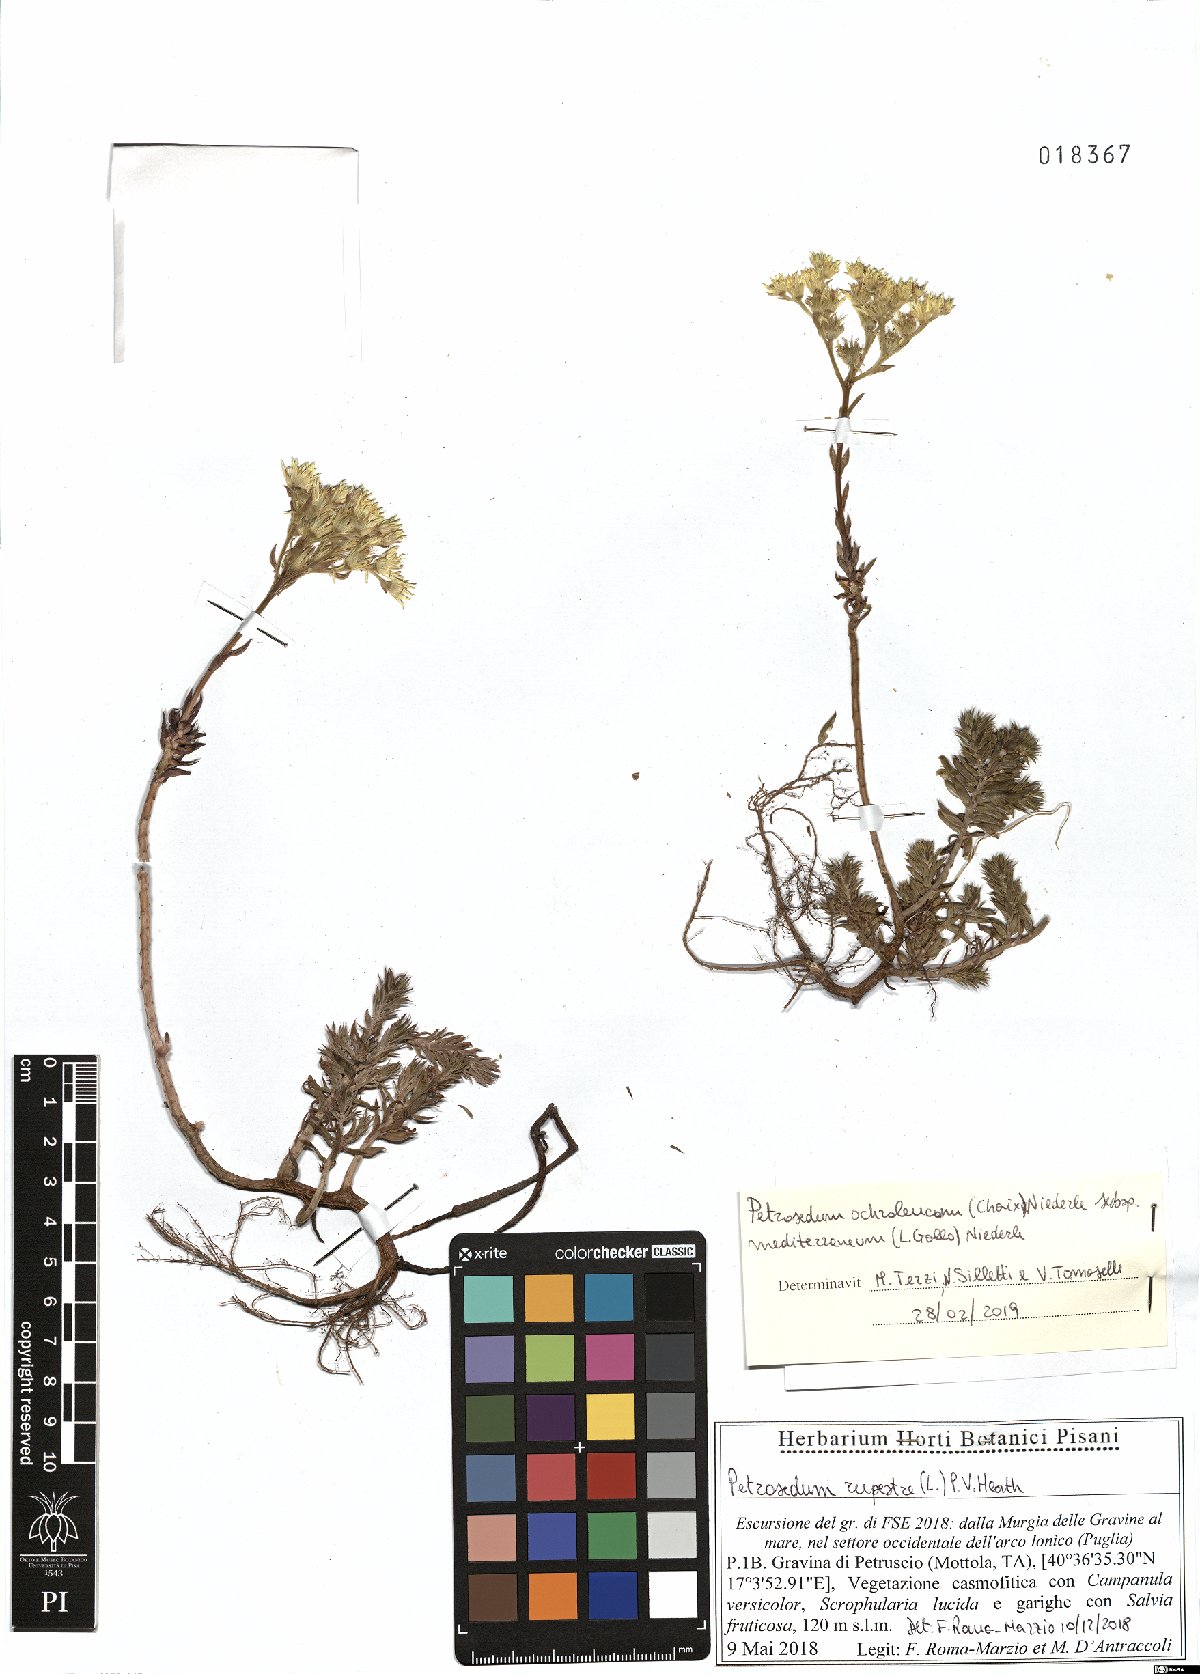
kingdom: Plantae
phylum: Tracheophyta
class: Magnoliopsida
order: Saxifragales
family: Crassulaceae
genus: Petrosedum
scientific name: Petrosedum albescens
